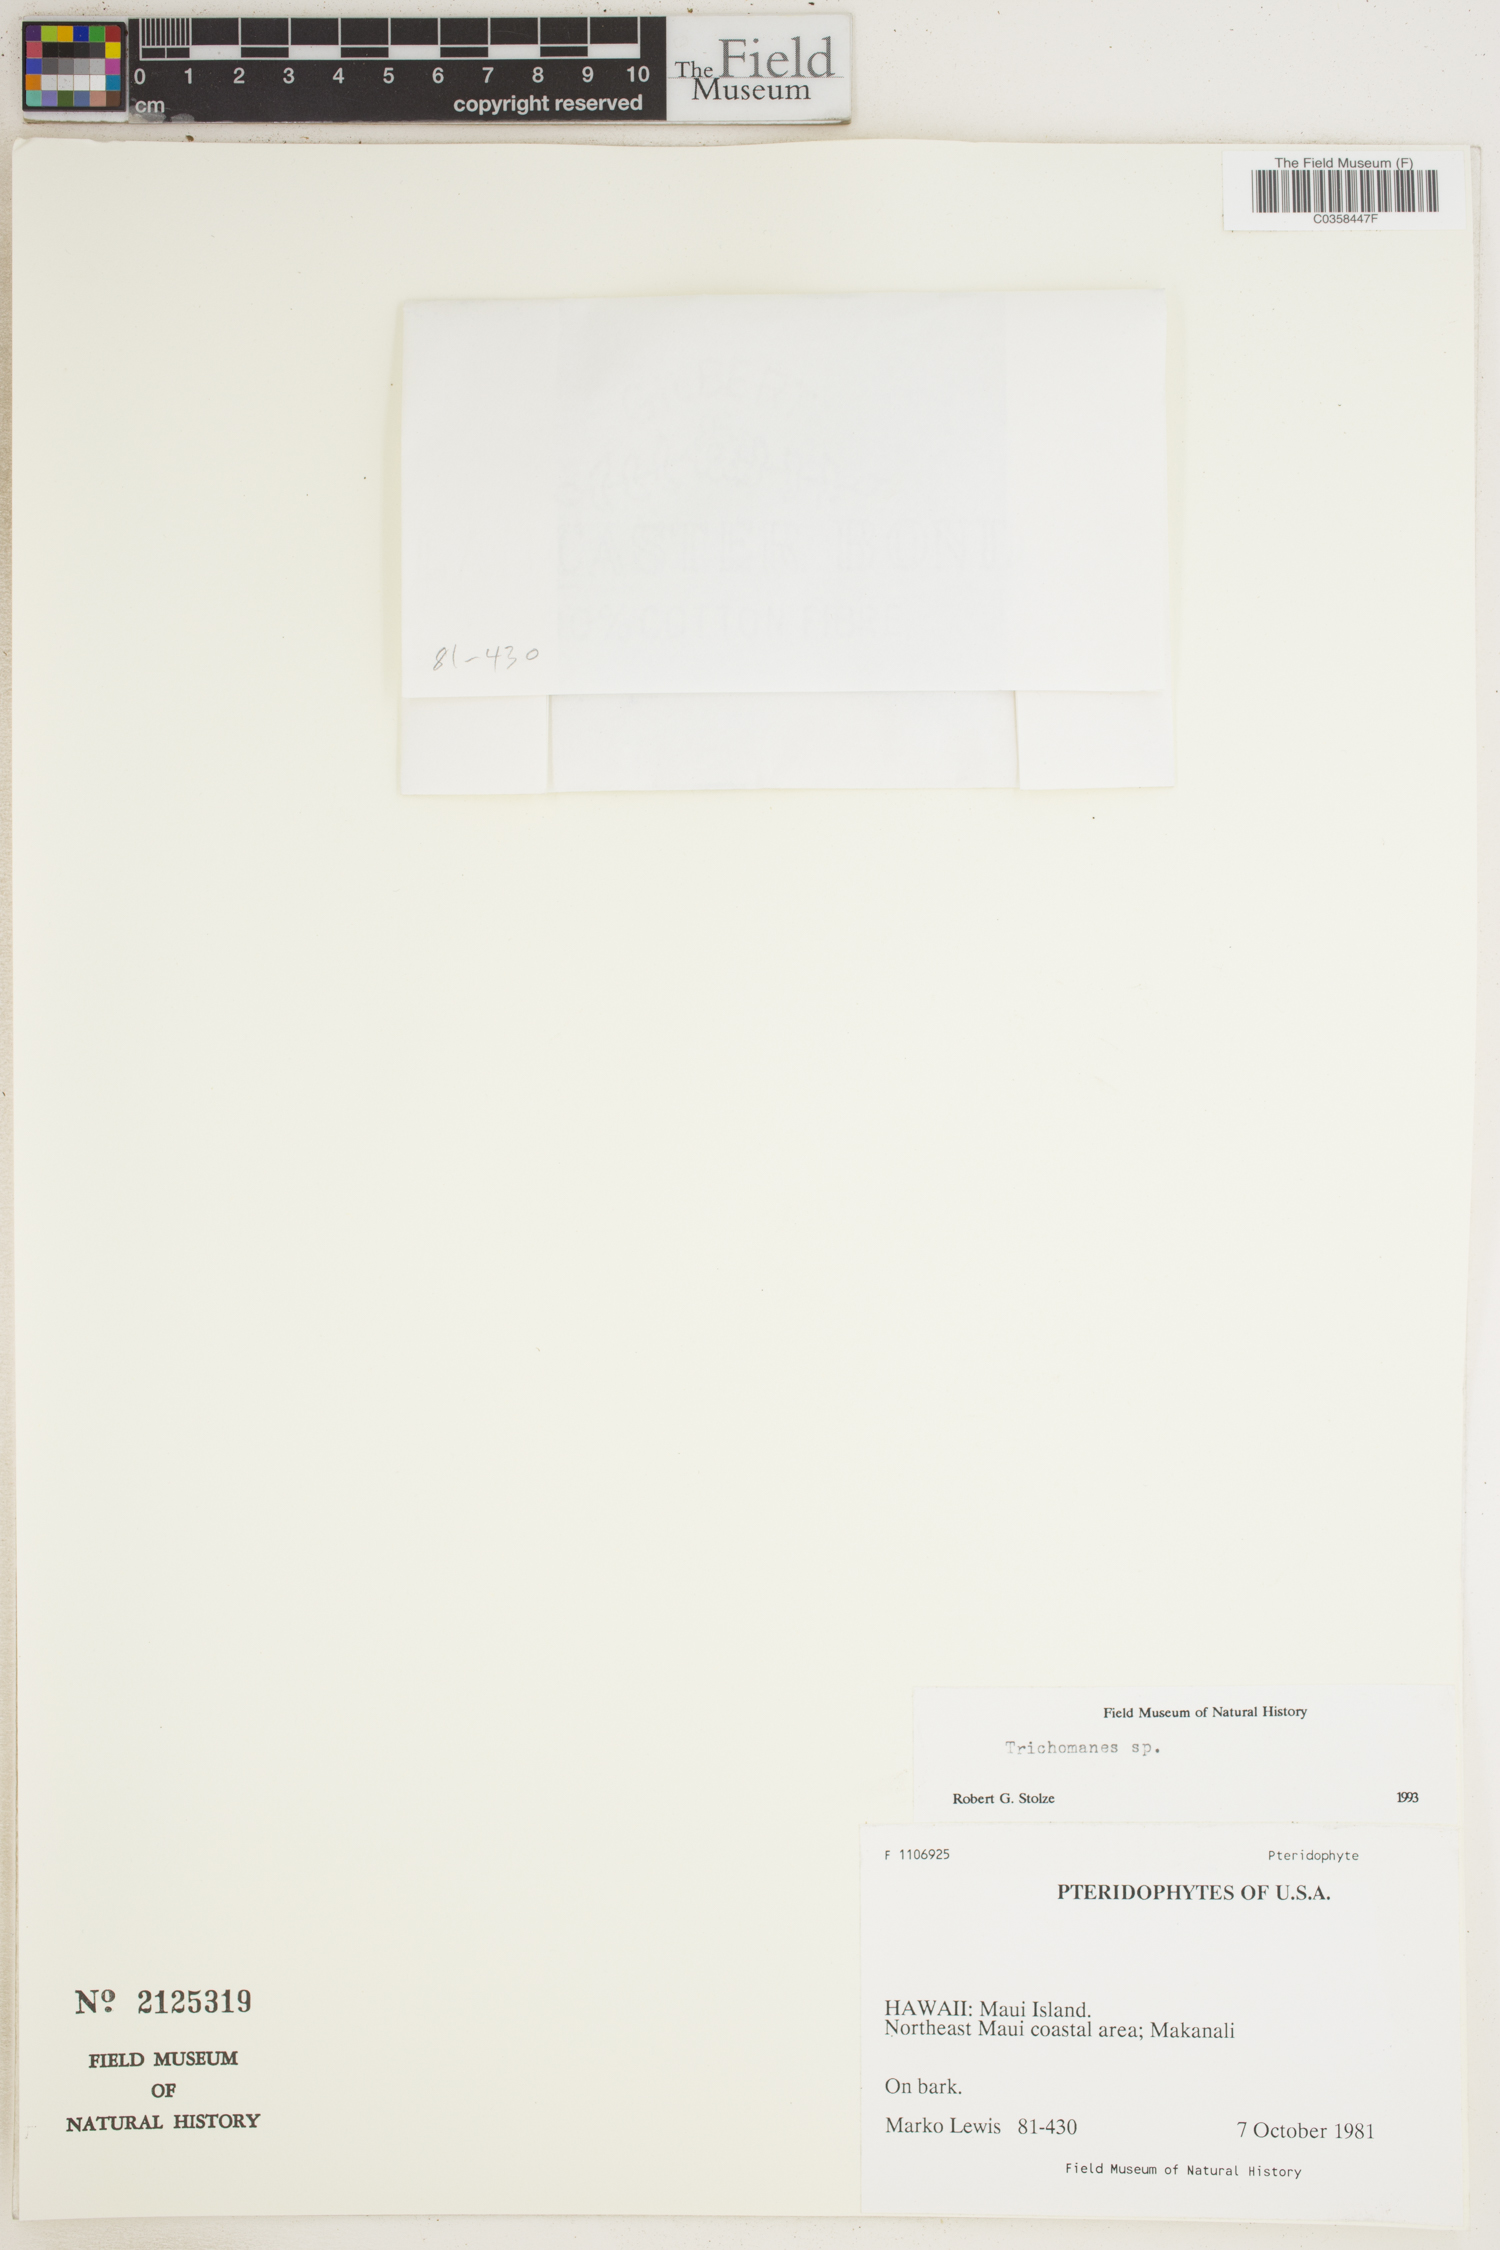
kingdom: Plantae
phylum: Tracheophyta
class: Polypodiopsida
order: Hymenophyllales
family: Hymenophyllaceae
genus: Trichomanes
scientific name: Trichomanes
